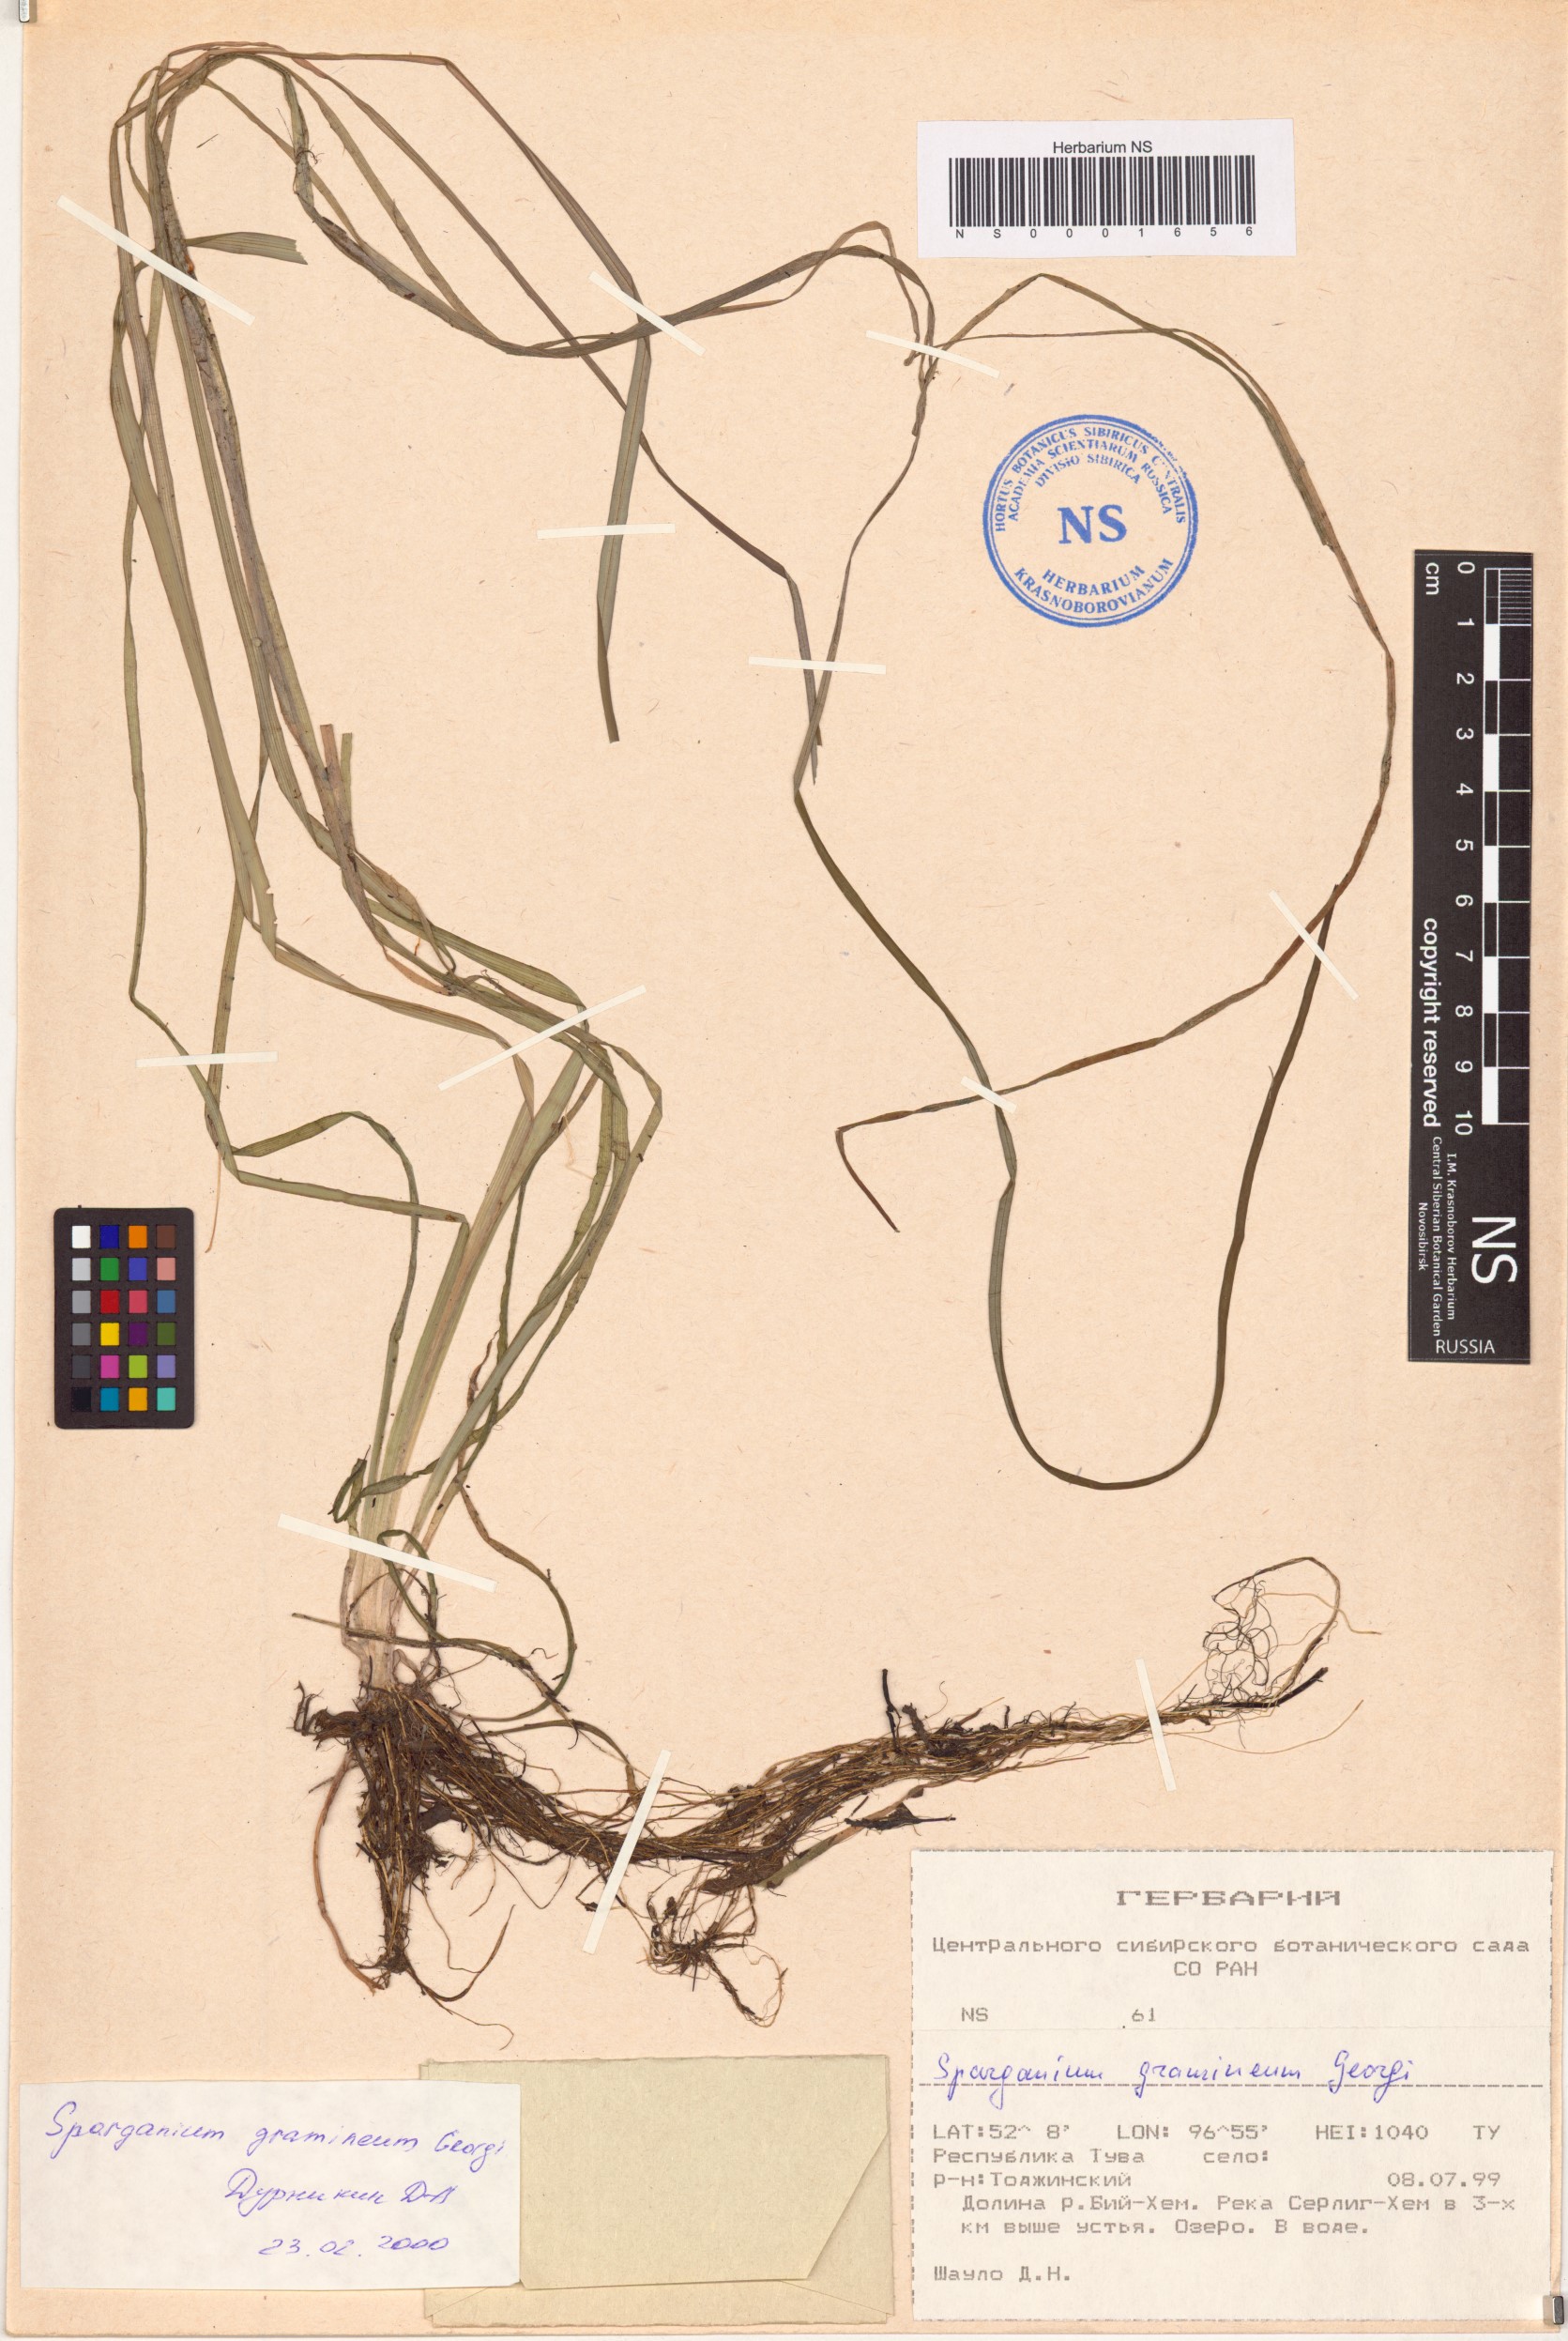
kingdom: Plantae
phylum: Tracheophyta
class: Liliopsida
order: Poales
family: Typhaceae
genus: Sparganium
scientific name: Sparganium gramineum
